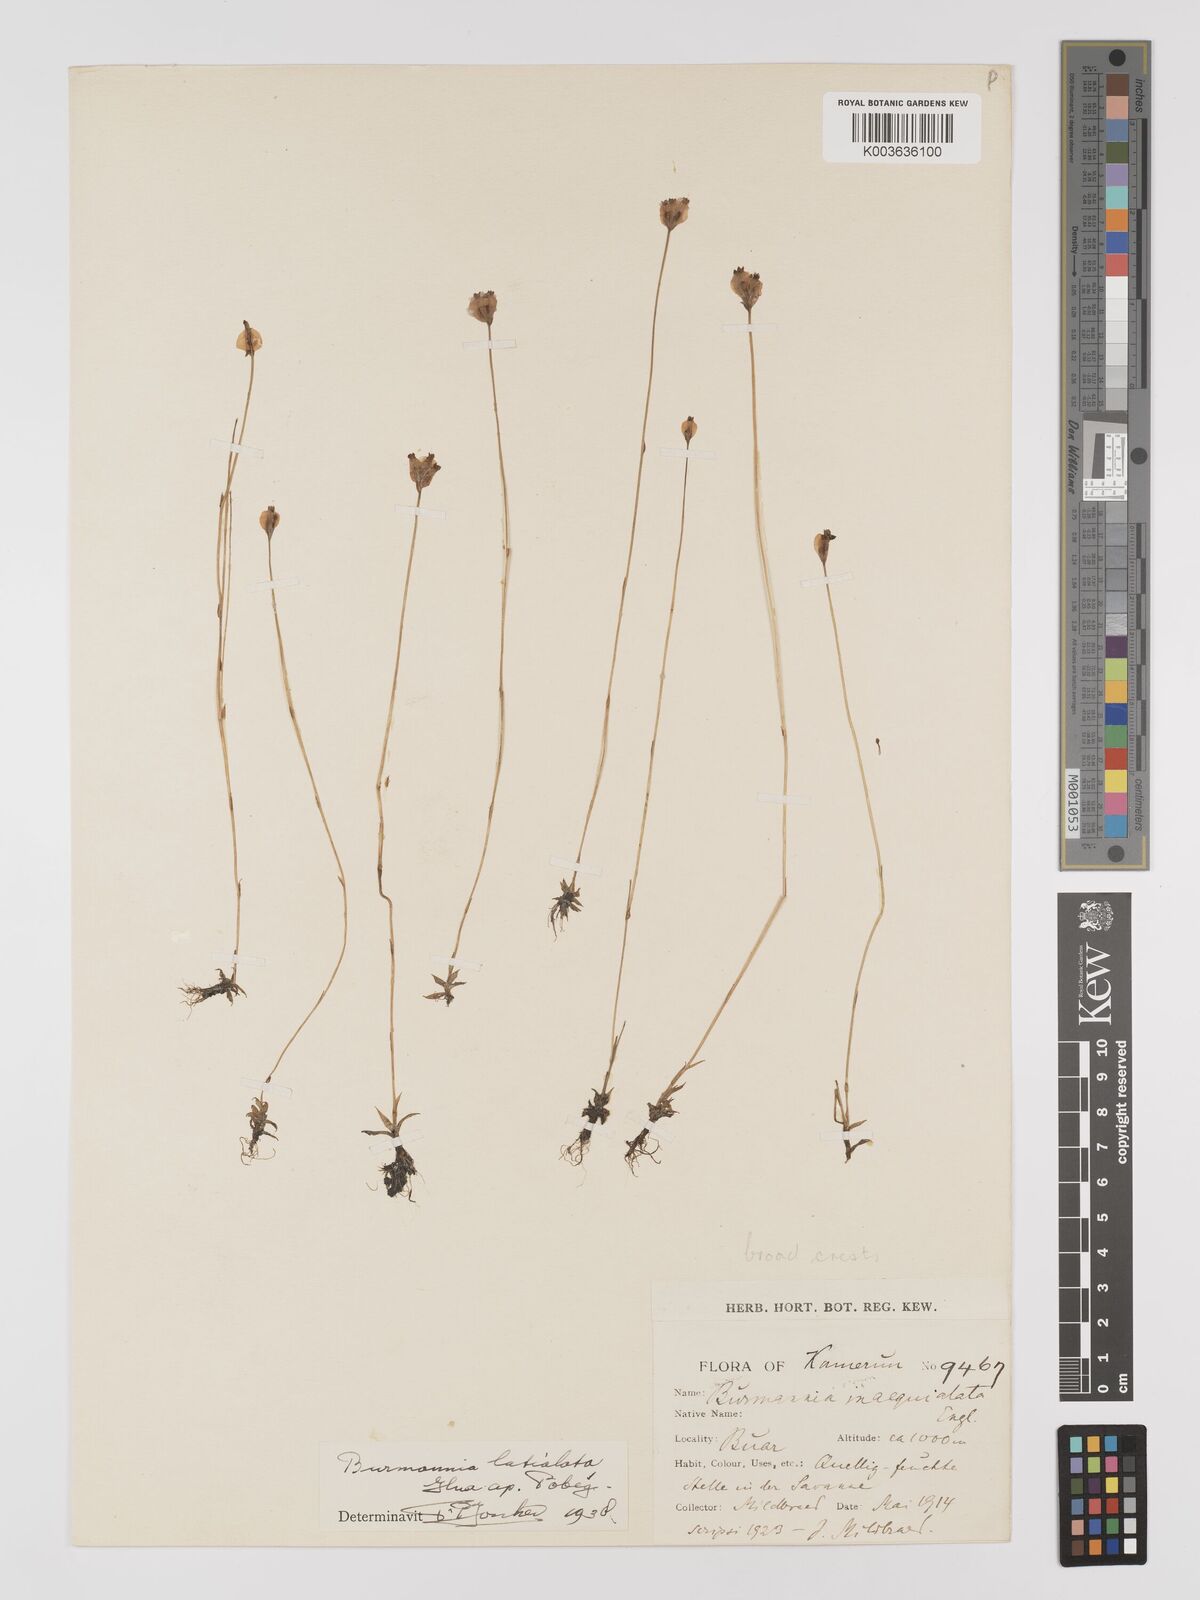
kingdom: Plantae
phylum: Tracheophyta
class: Liliopsida
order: Dioscoreales
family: Burmanniaceae
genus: Burmannia
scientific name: Burmannia madagascariensis
